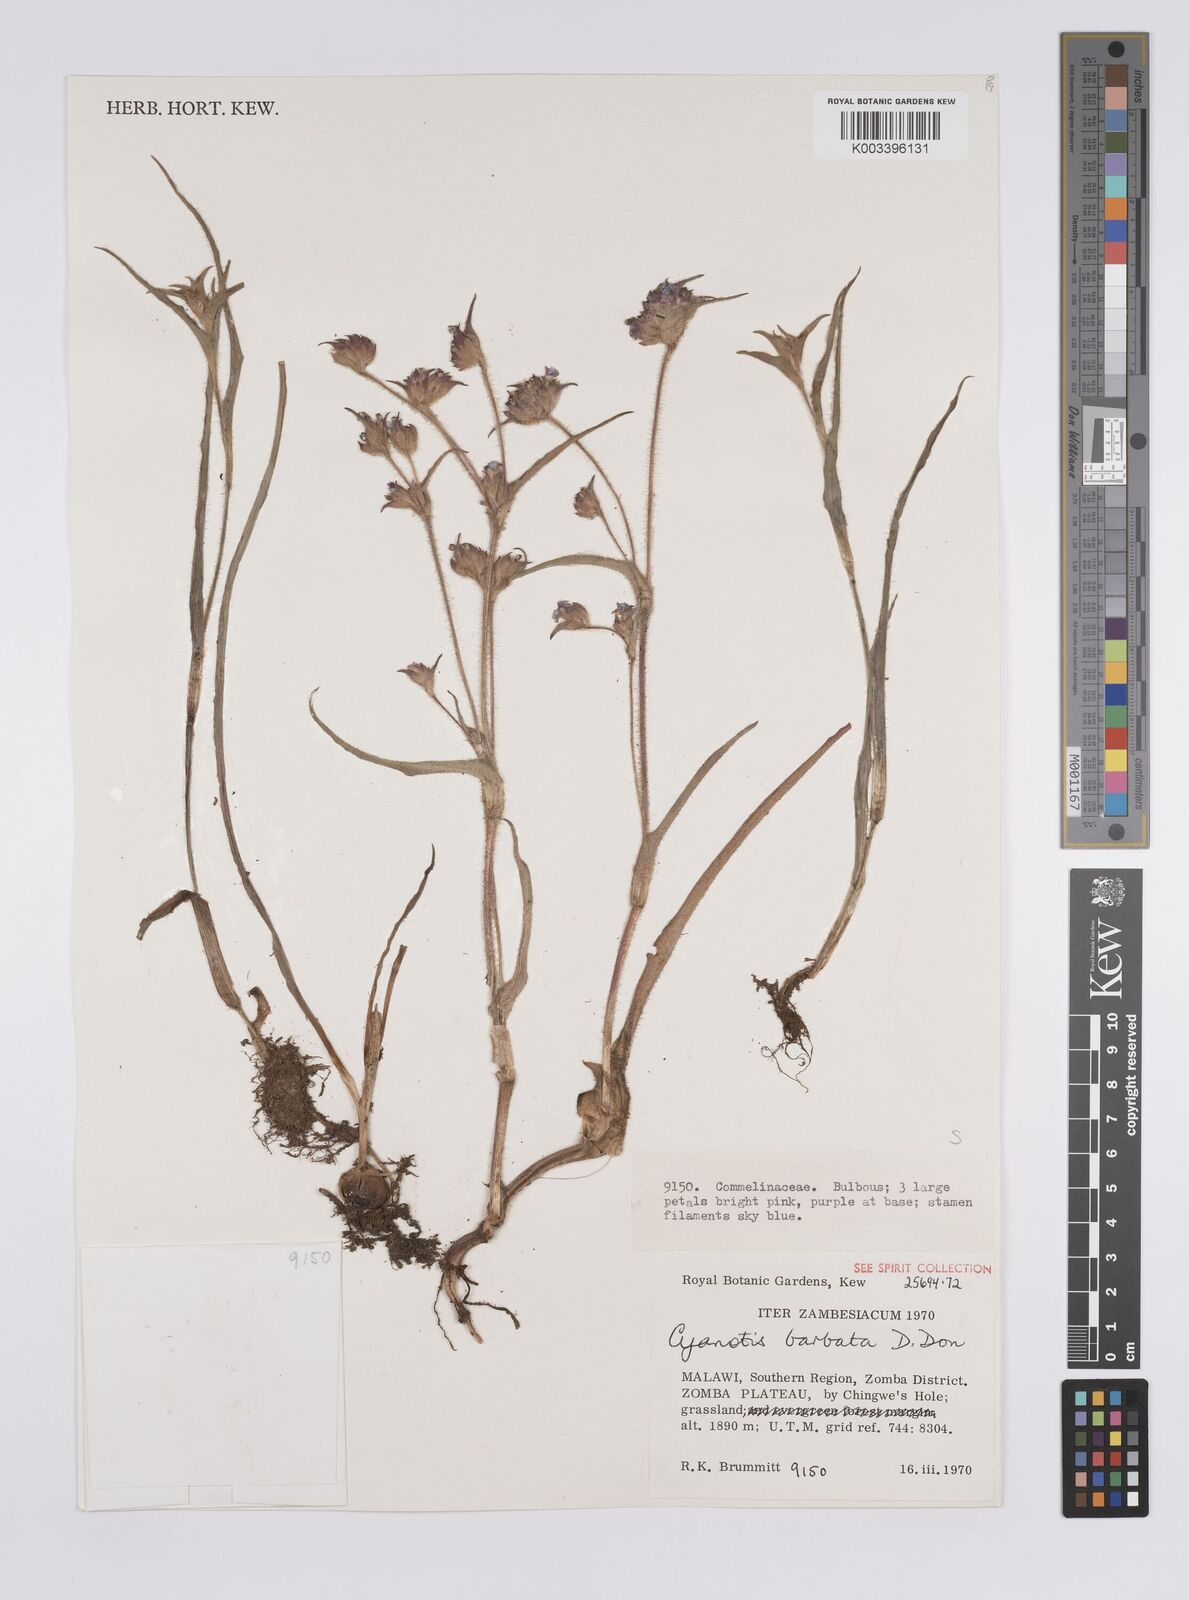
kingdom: Plantae
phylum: Tracheophyta
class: Liliopsida
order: Commelinales
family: Commelinaceae
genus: Cyanotis
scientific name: Cyanotis vaga
